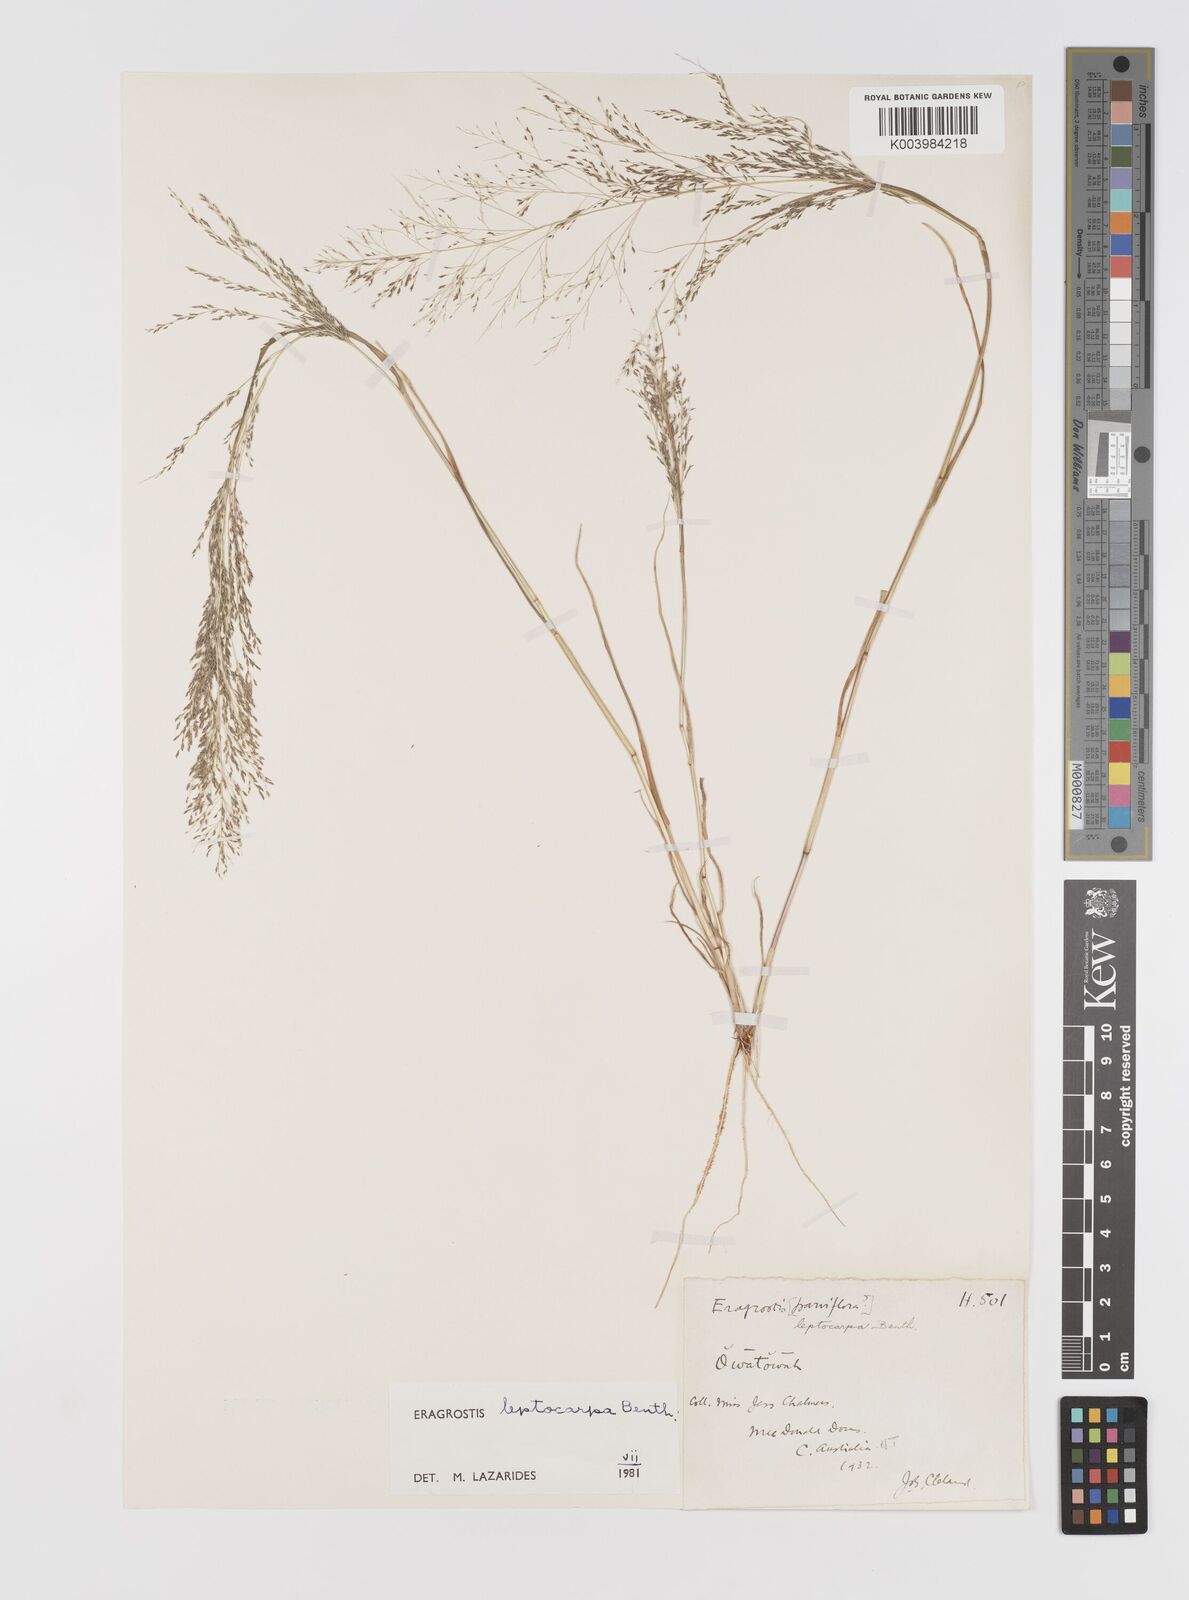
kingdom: Plantae
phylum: Tracheophyta
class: Liliopsida
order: Poales
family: Poaceae
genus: Eragrostis
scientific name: Eragrostis leptocarpa
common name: Drooping love grass
